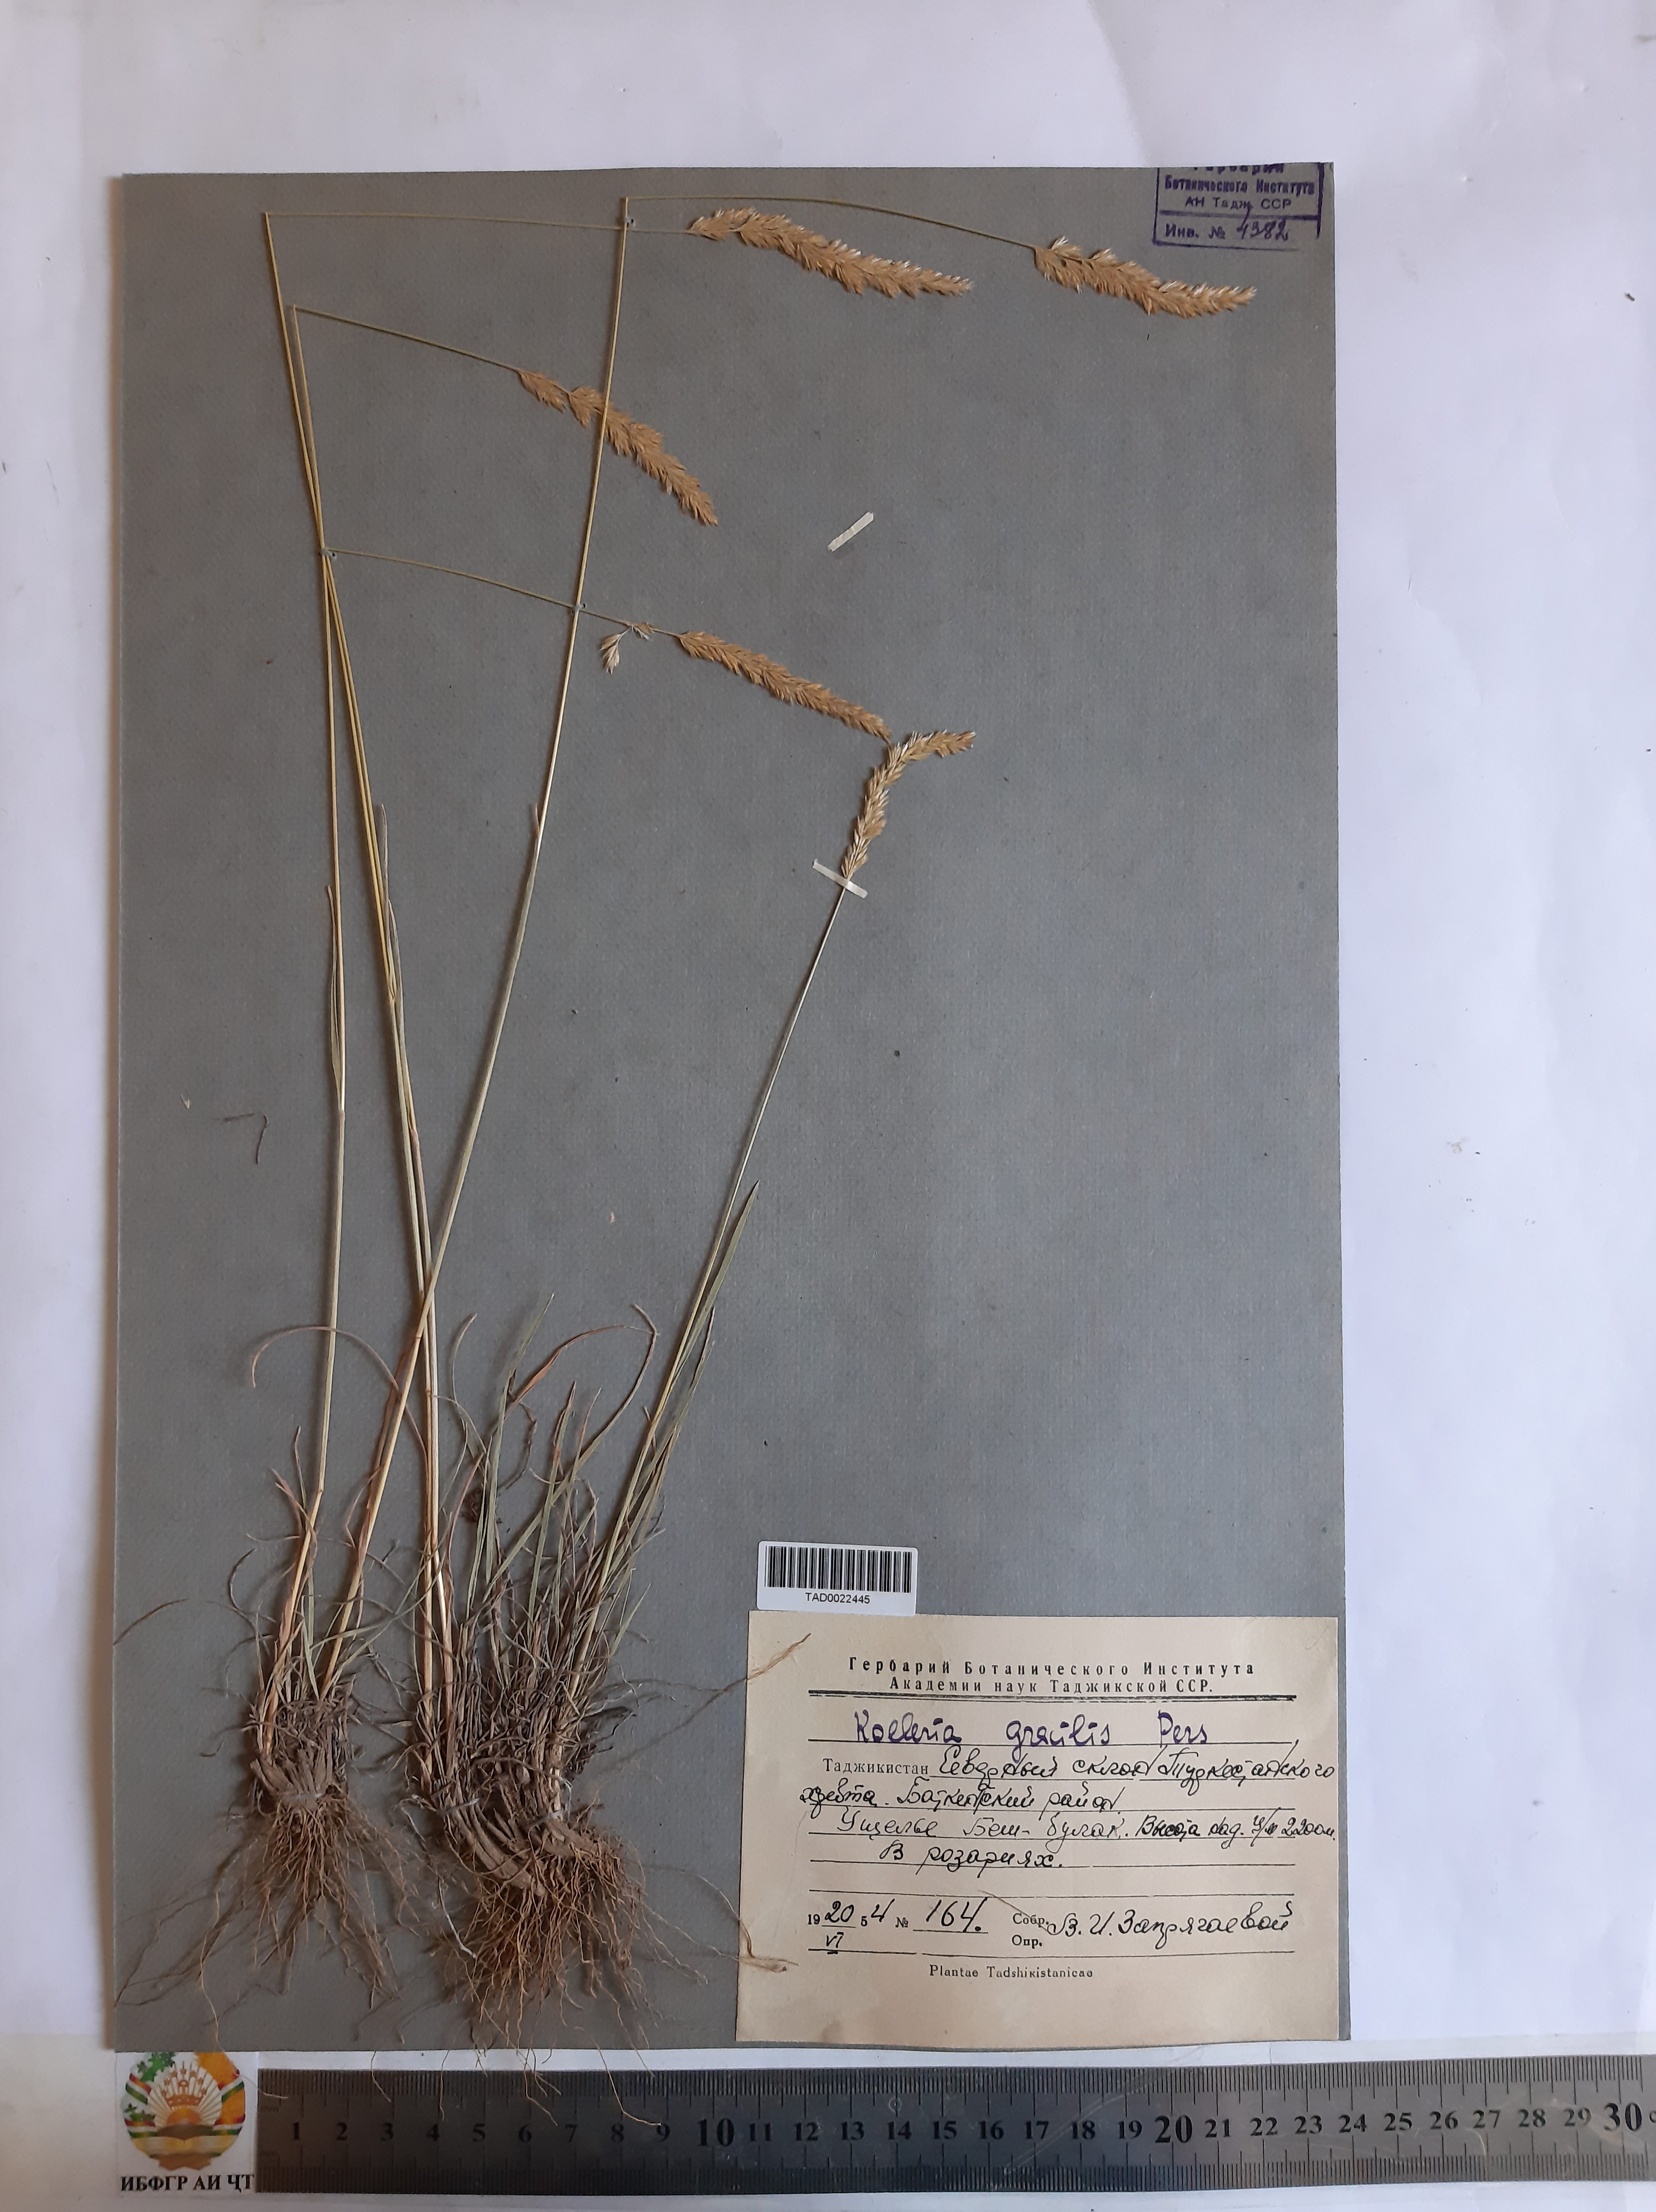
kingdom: Plantae
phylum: Tracheophyta
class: Liliopsida
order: Poales
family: Poaceae
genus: Koeleria
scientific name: Koeleria macrantha
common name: Crested hair-grass
